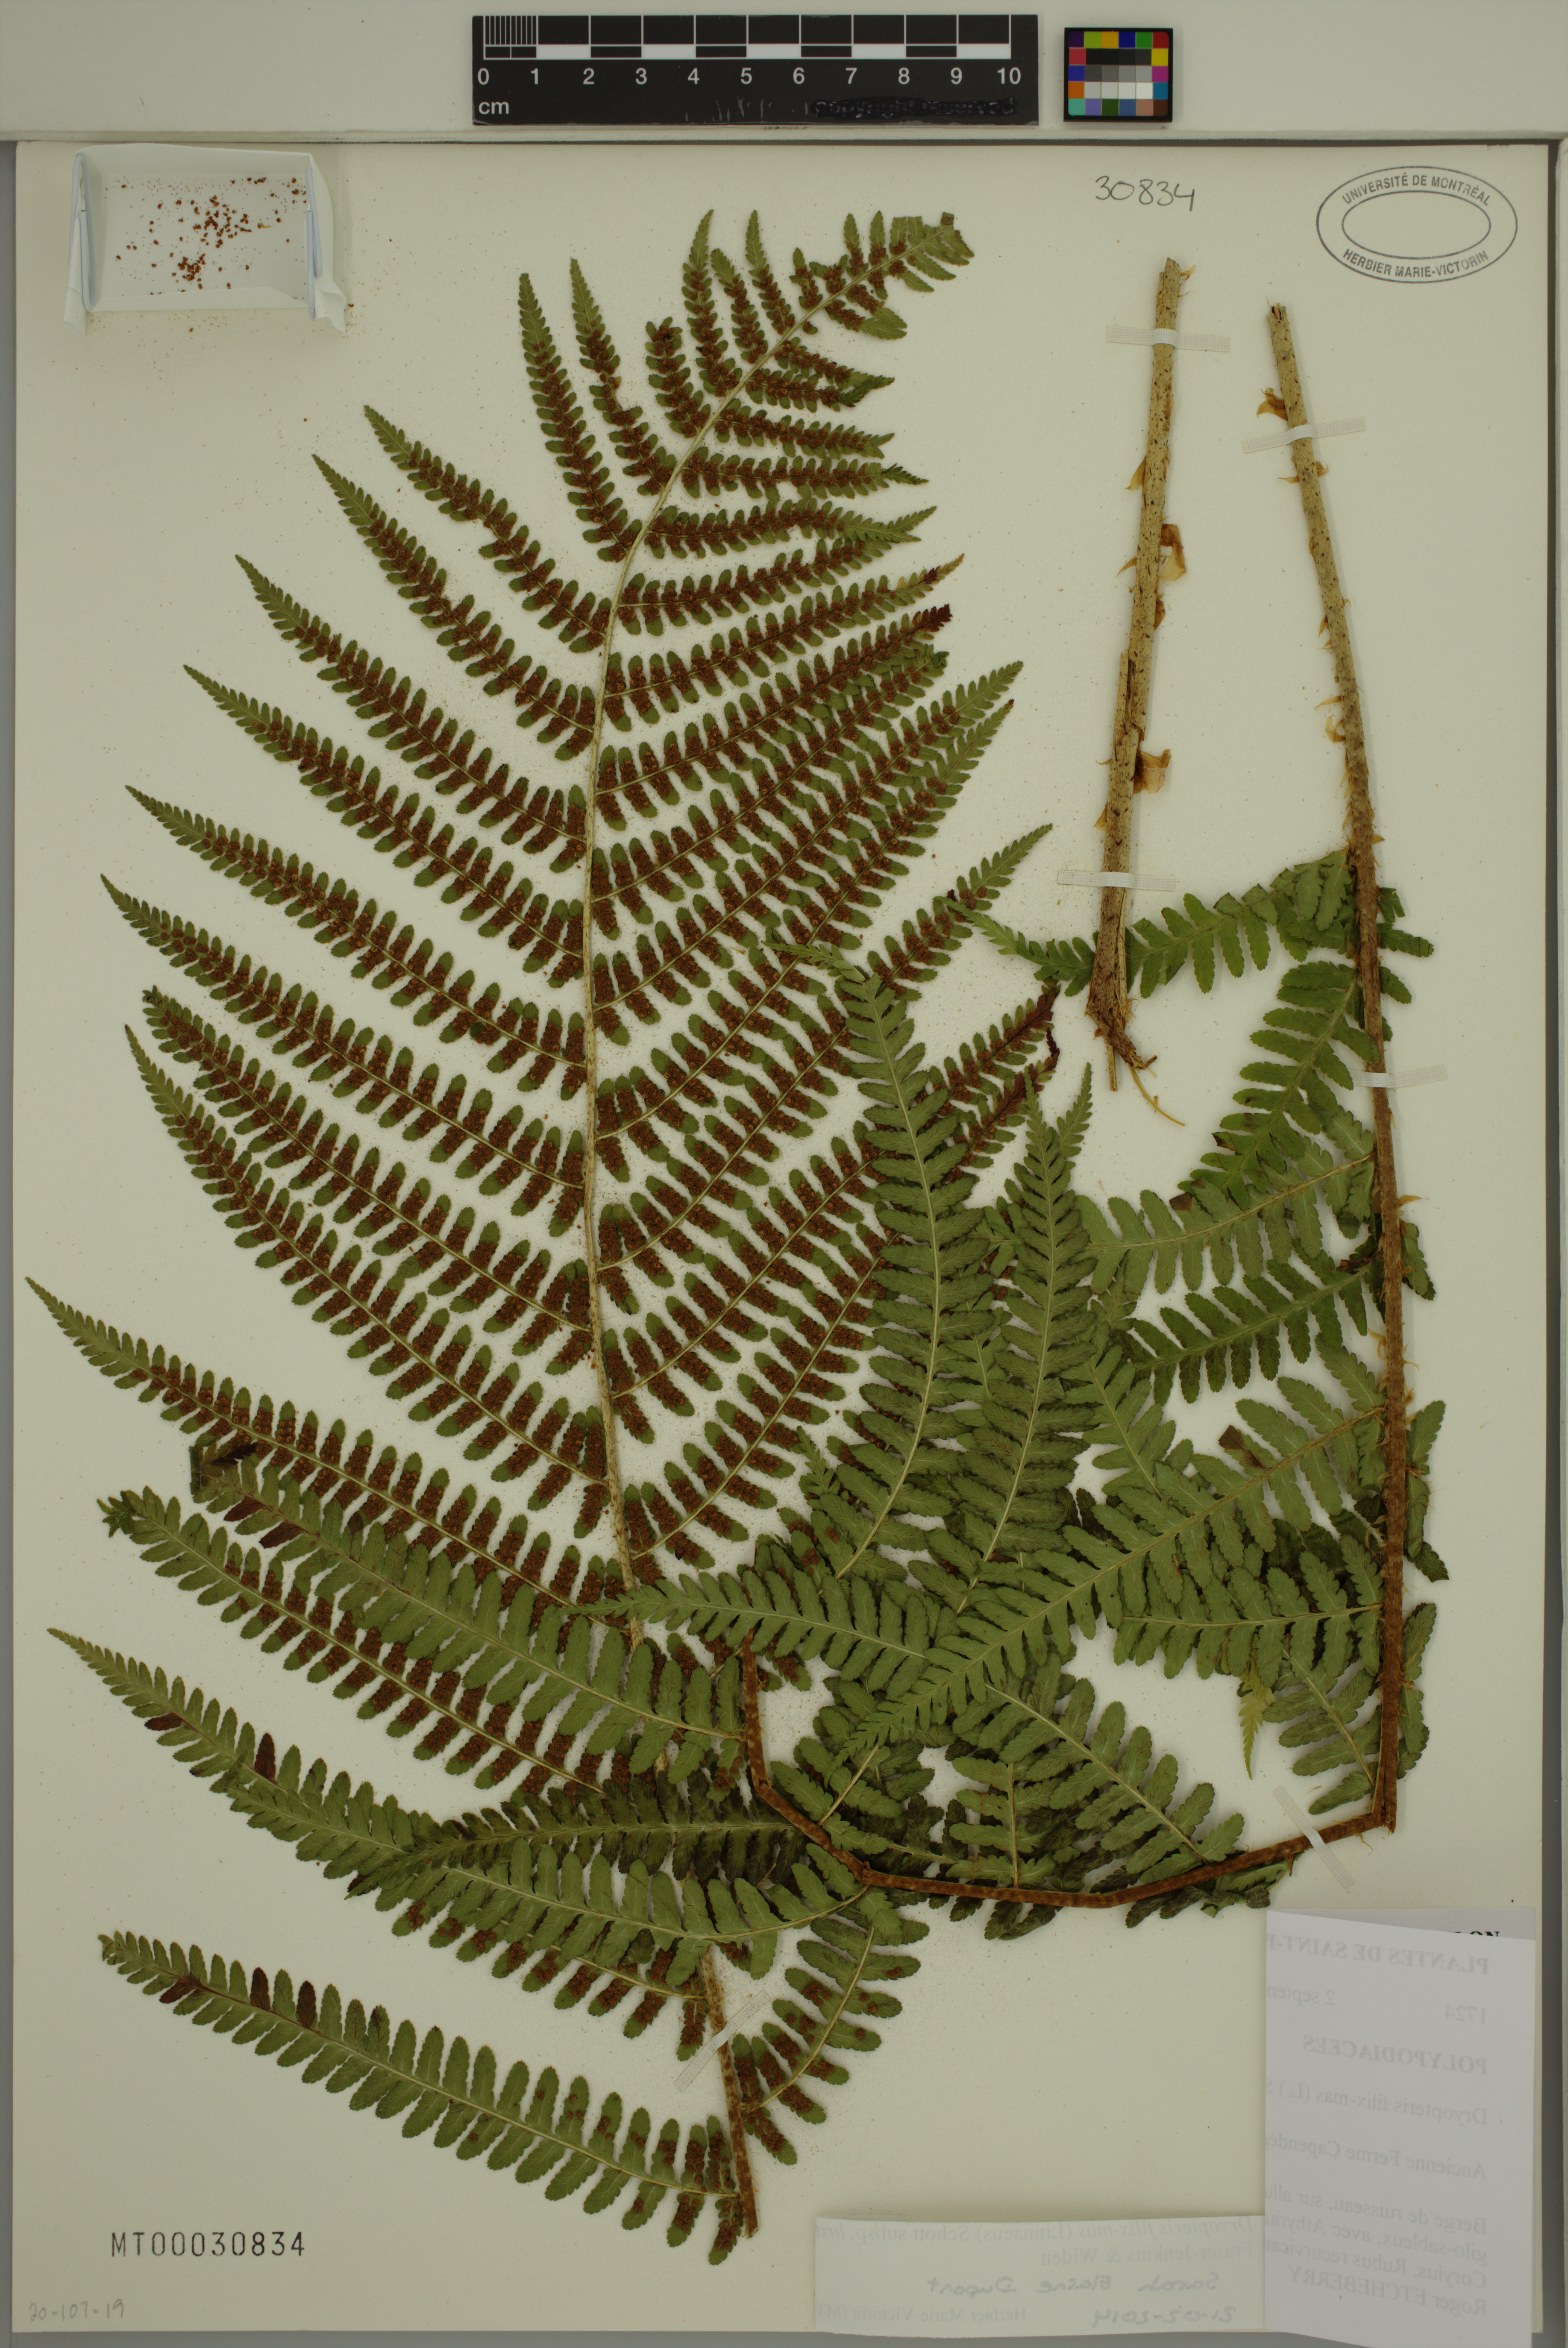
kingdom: Plantae
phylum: Tracheophyta
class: Polypodiopsida
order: Polypodiales
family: Dryopteridaceae
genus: Dryopteris
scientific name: Dryopteris filix-mas
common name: Male fern
